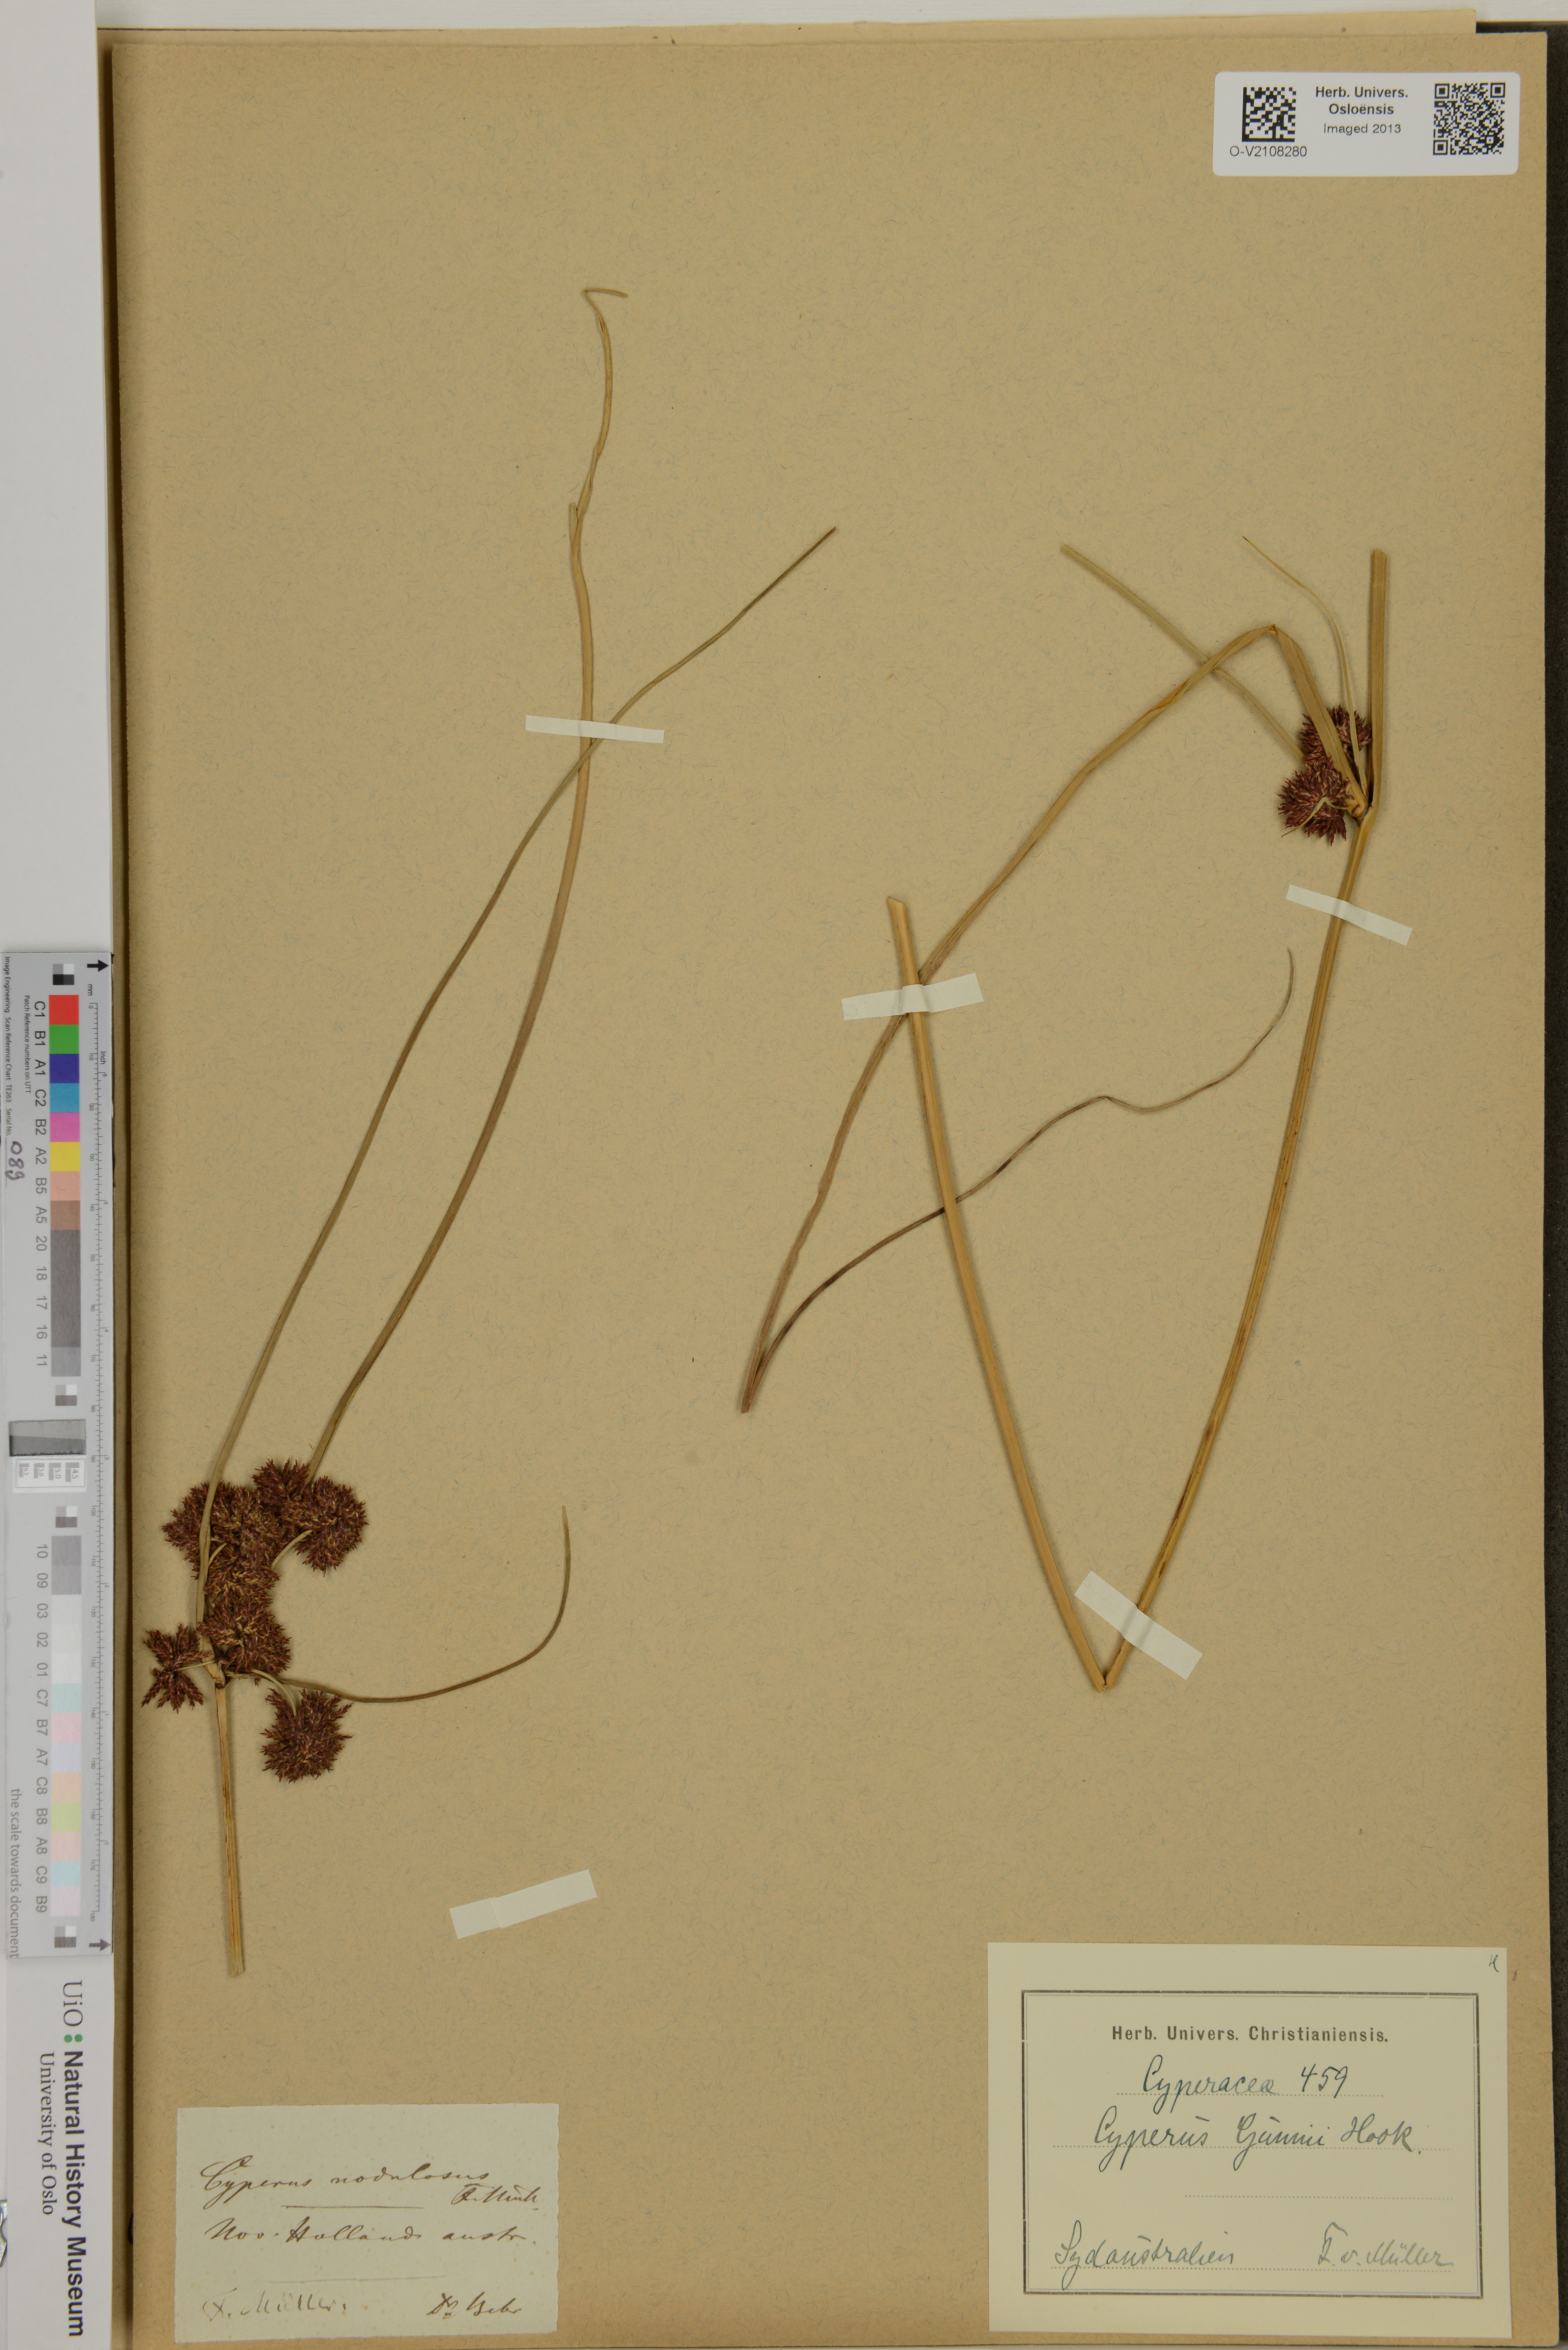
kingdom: Plantae
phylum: Tracheophyta
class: Liliopsida
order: Poales
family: Cyperaceae
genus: Cyperus
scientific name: Cyperus gunnii
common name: Flecked flat-sedge
